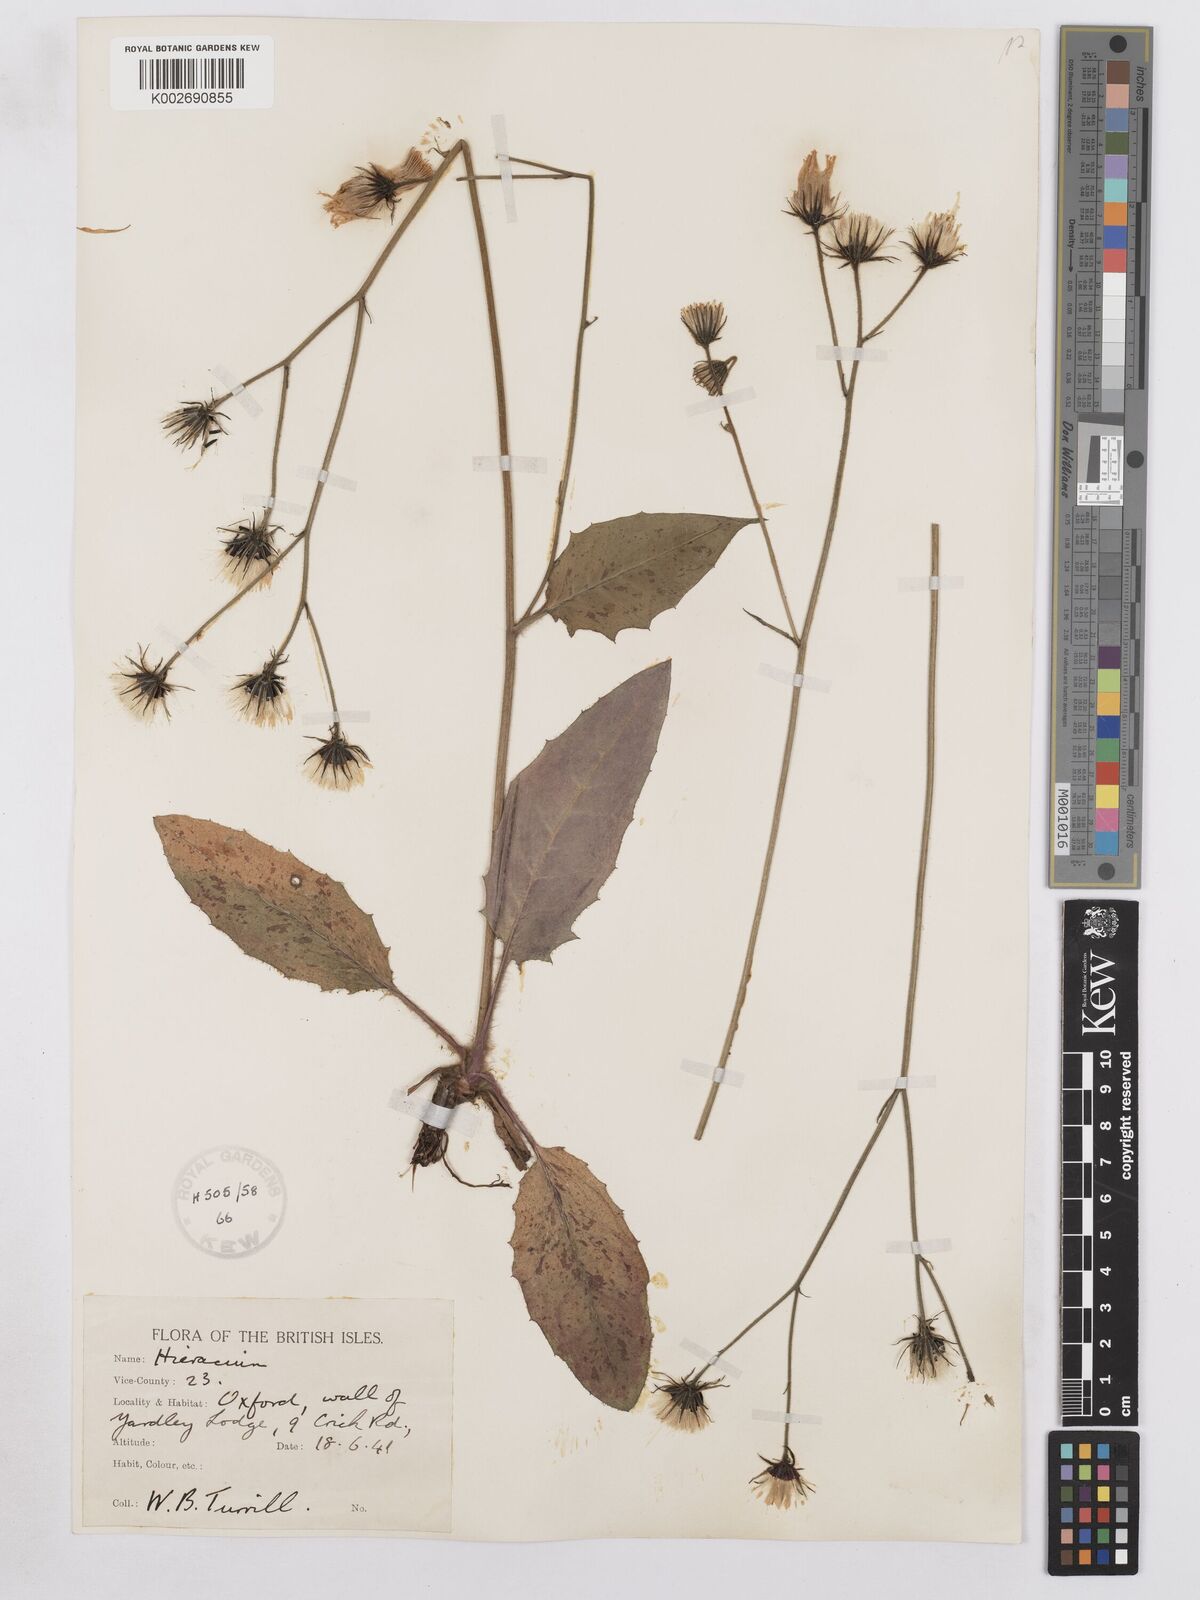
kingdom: Plantae
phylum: Tracheophyta
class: Magnoliopsida
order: Asterales
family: Asteraceae
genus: Hieracium
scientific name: Hieracium murorum
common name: Wall hawkweed
